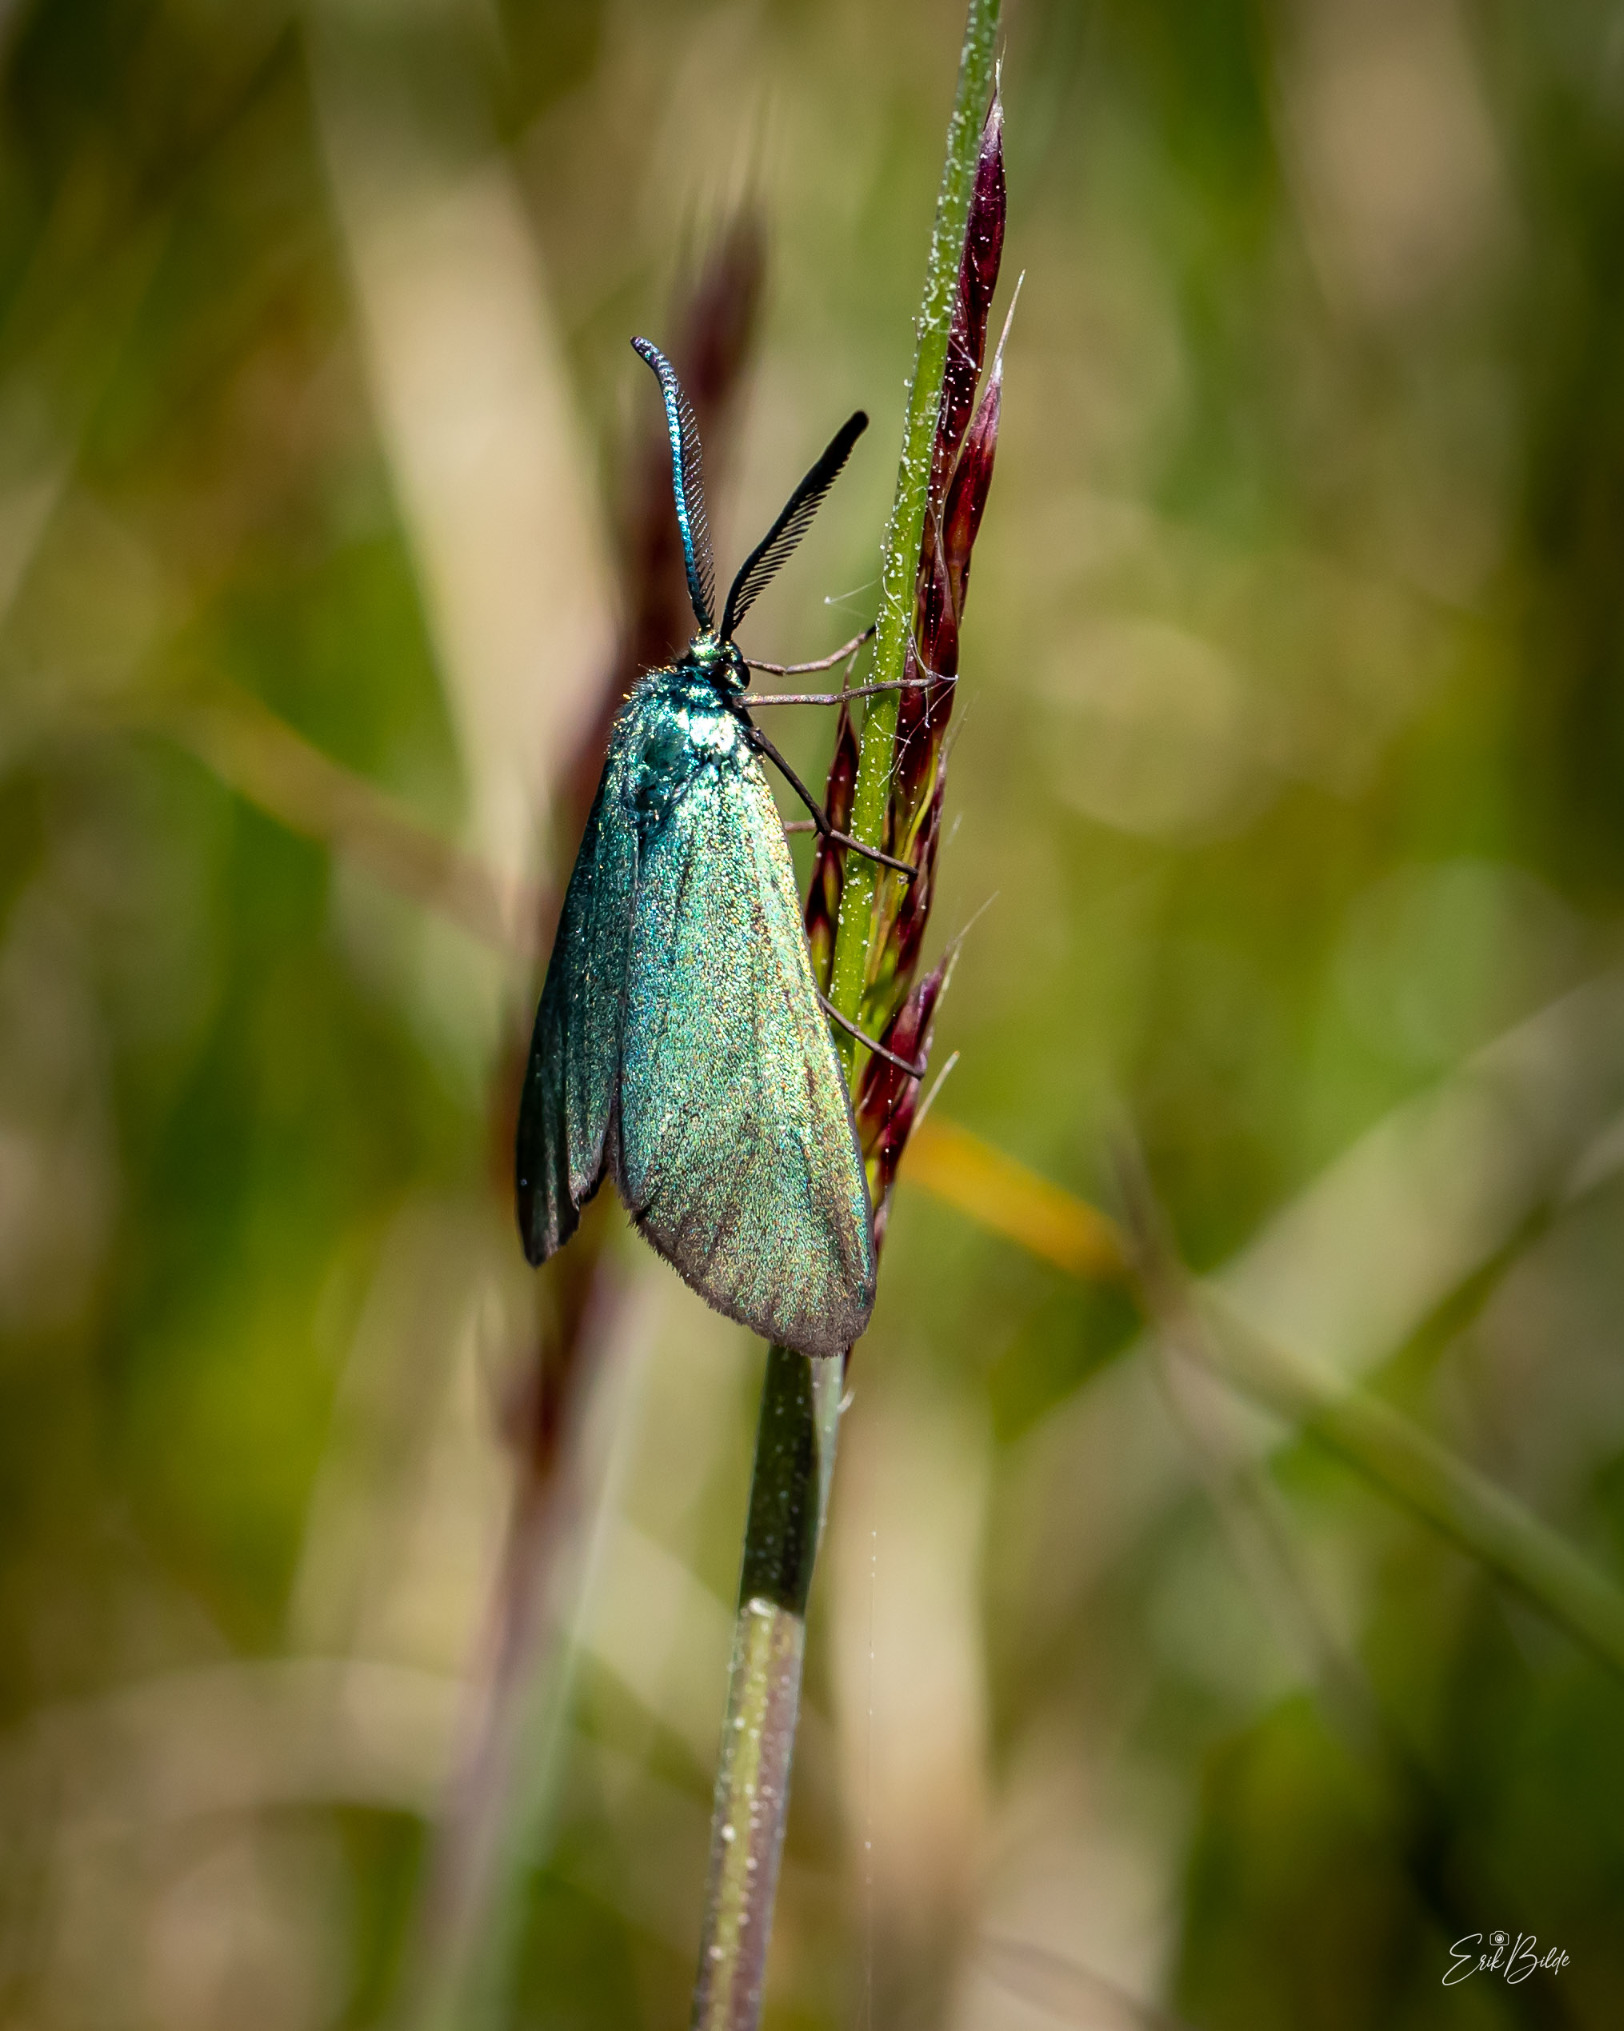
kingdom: Animalia
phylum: Arthropoda
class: Insecta
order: Lepidoptera
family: Zygaenidae
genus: Adscita
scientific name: Adscita statices
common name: Metalvinge
